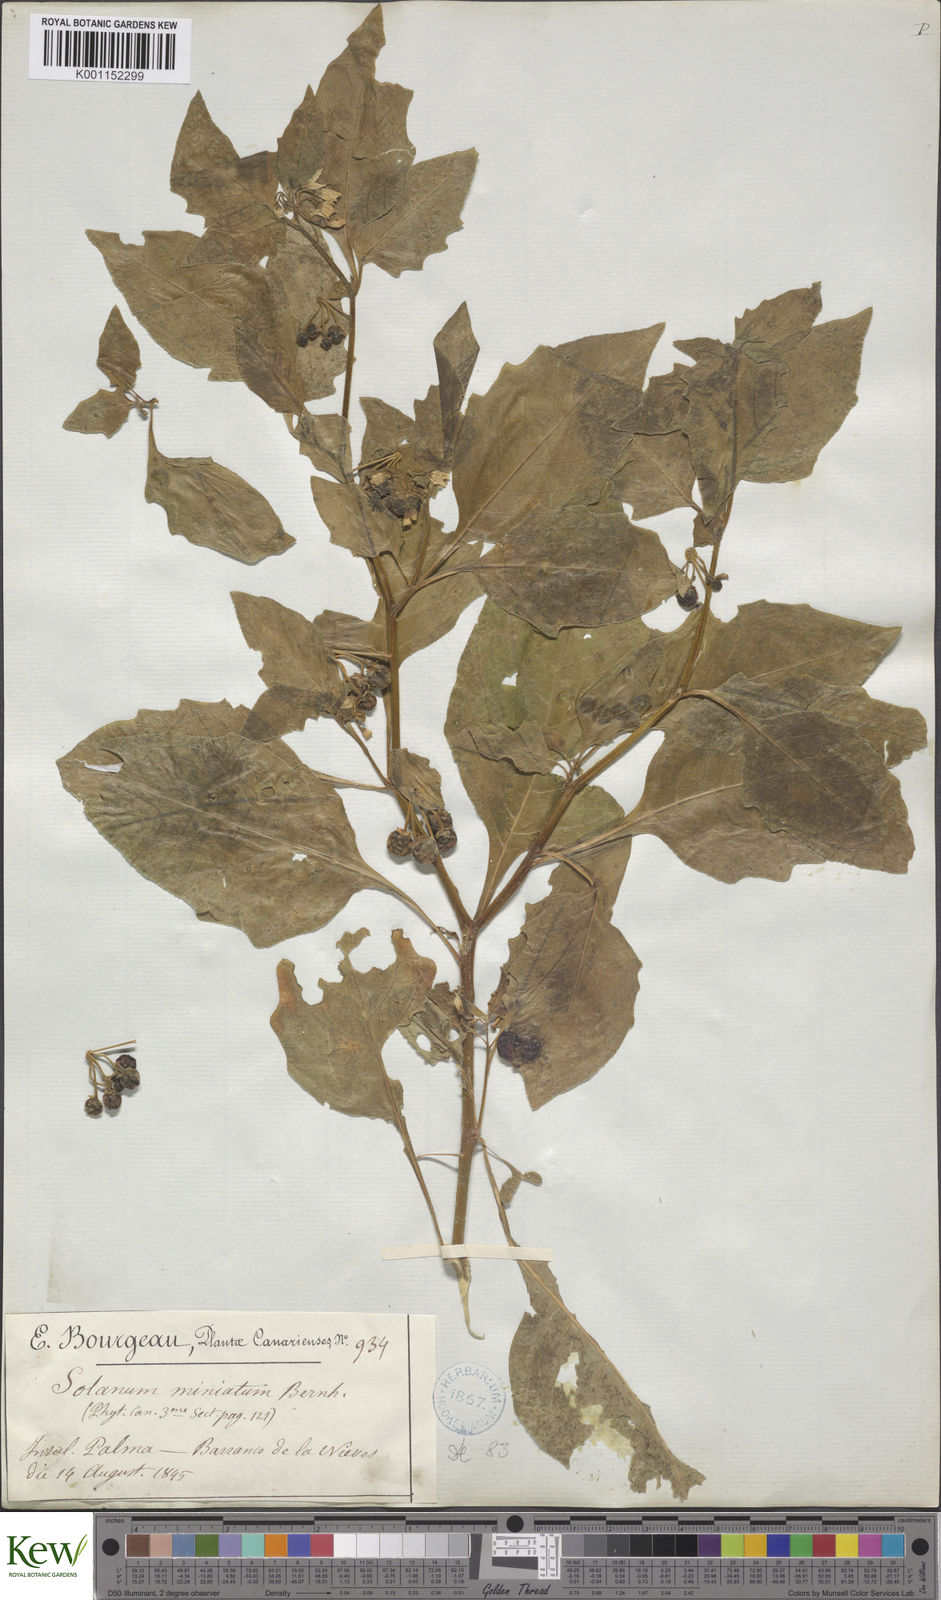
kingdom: Plantae
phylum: Tracheophyta
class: Magnoliopsida
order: Solanales
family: Solanaceae
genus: Solanum
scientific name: Solanum nigrum
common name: Black nightshade
